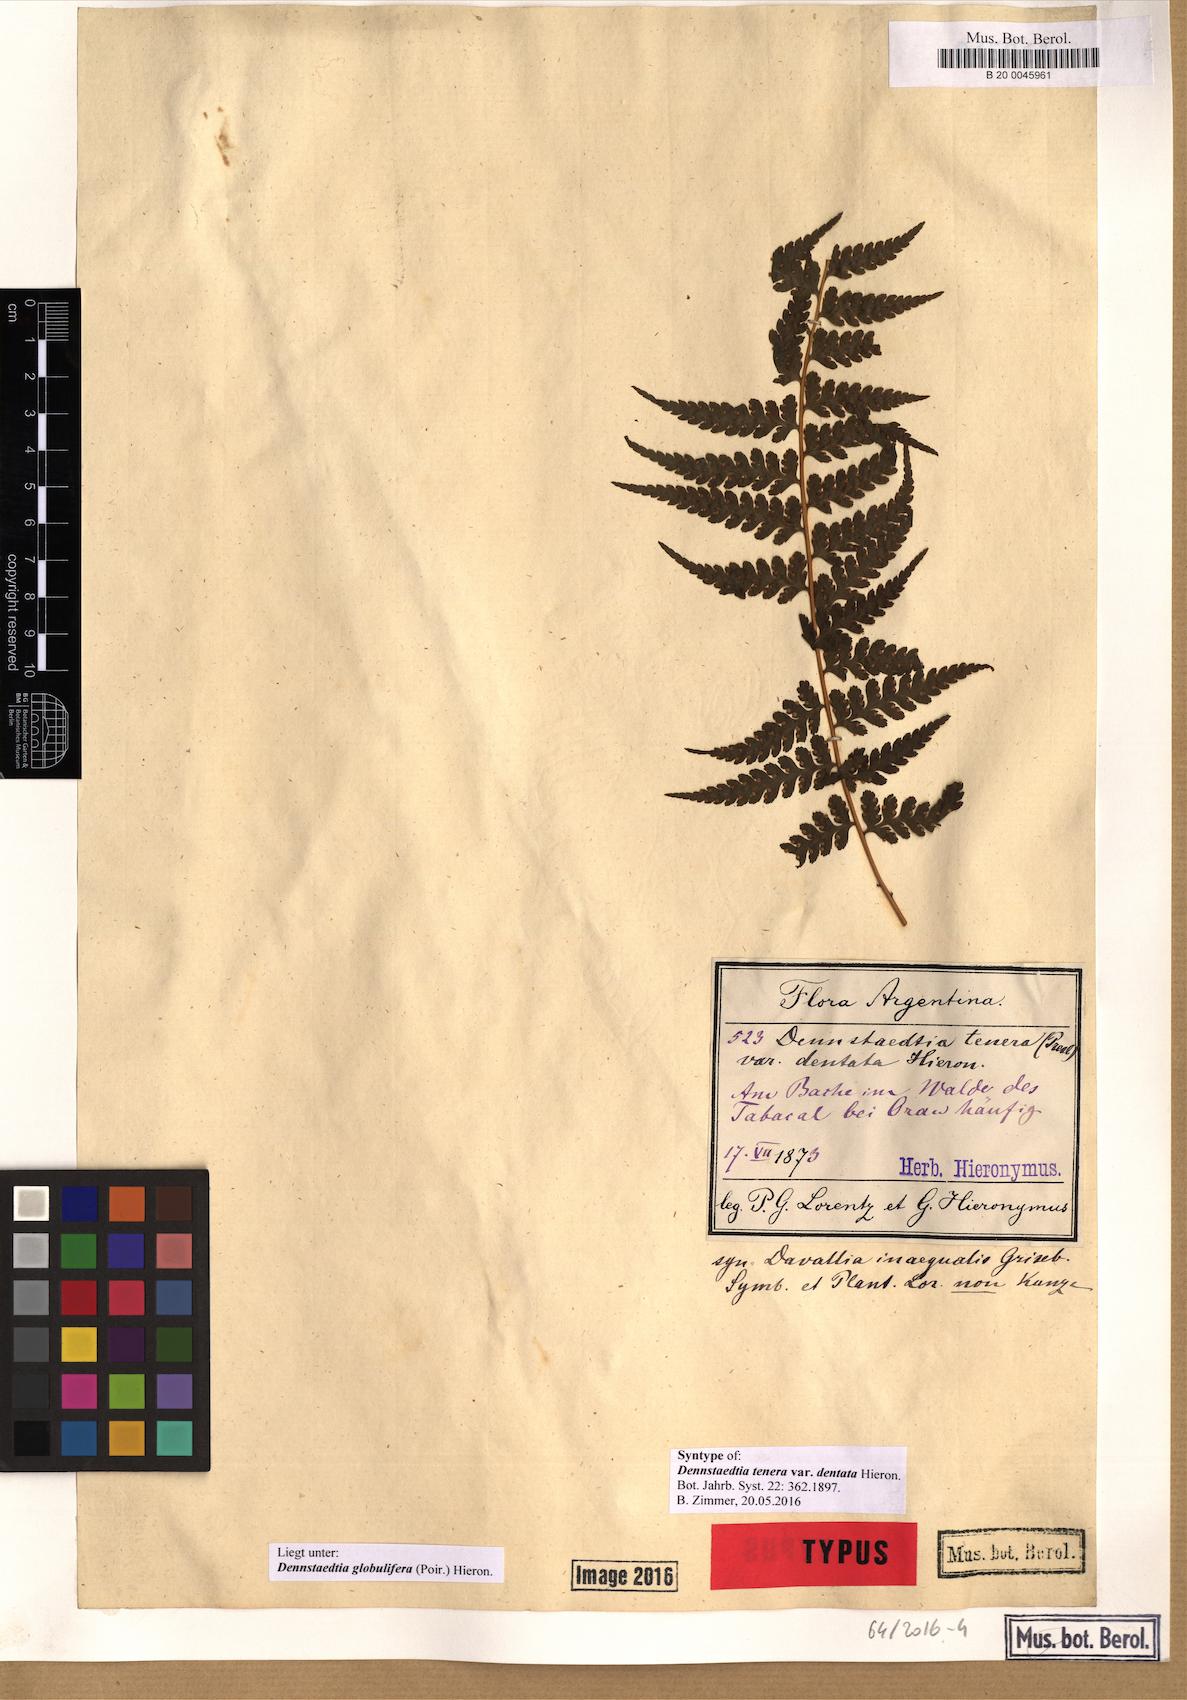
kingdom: Plantae
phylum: Tracheophyta
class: Polypodiopsida
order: Polypodiales
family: Dennstaedtiaceae
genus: Mucura
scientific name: Mucura globulifera
